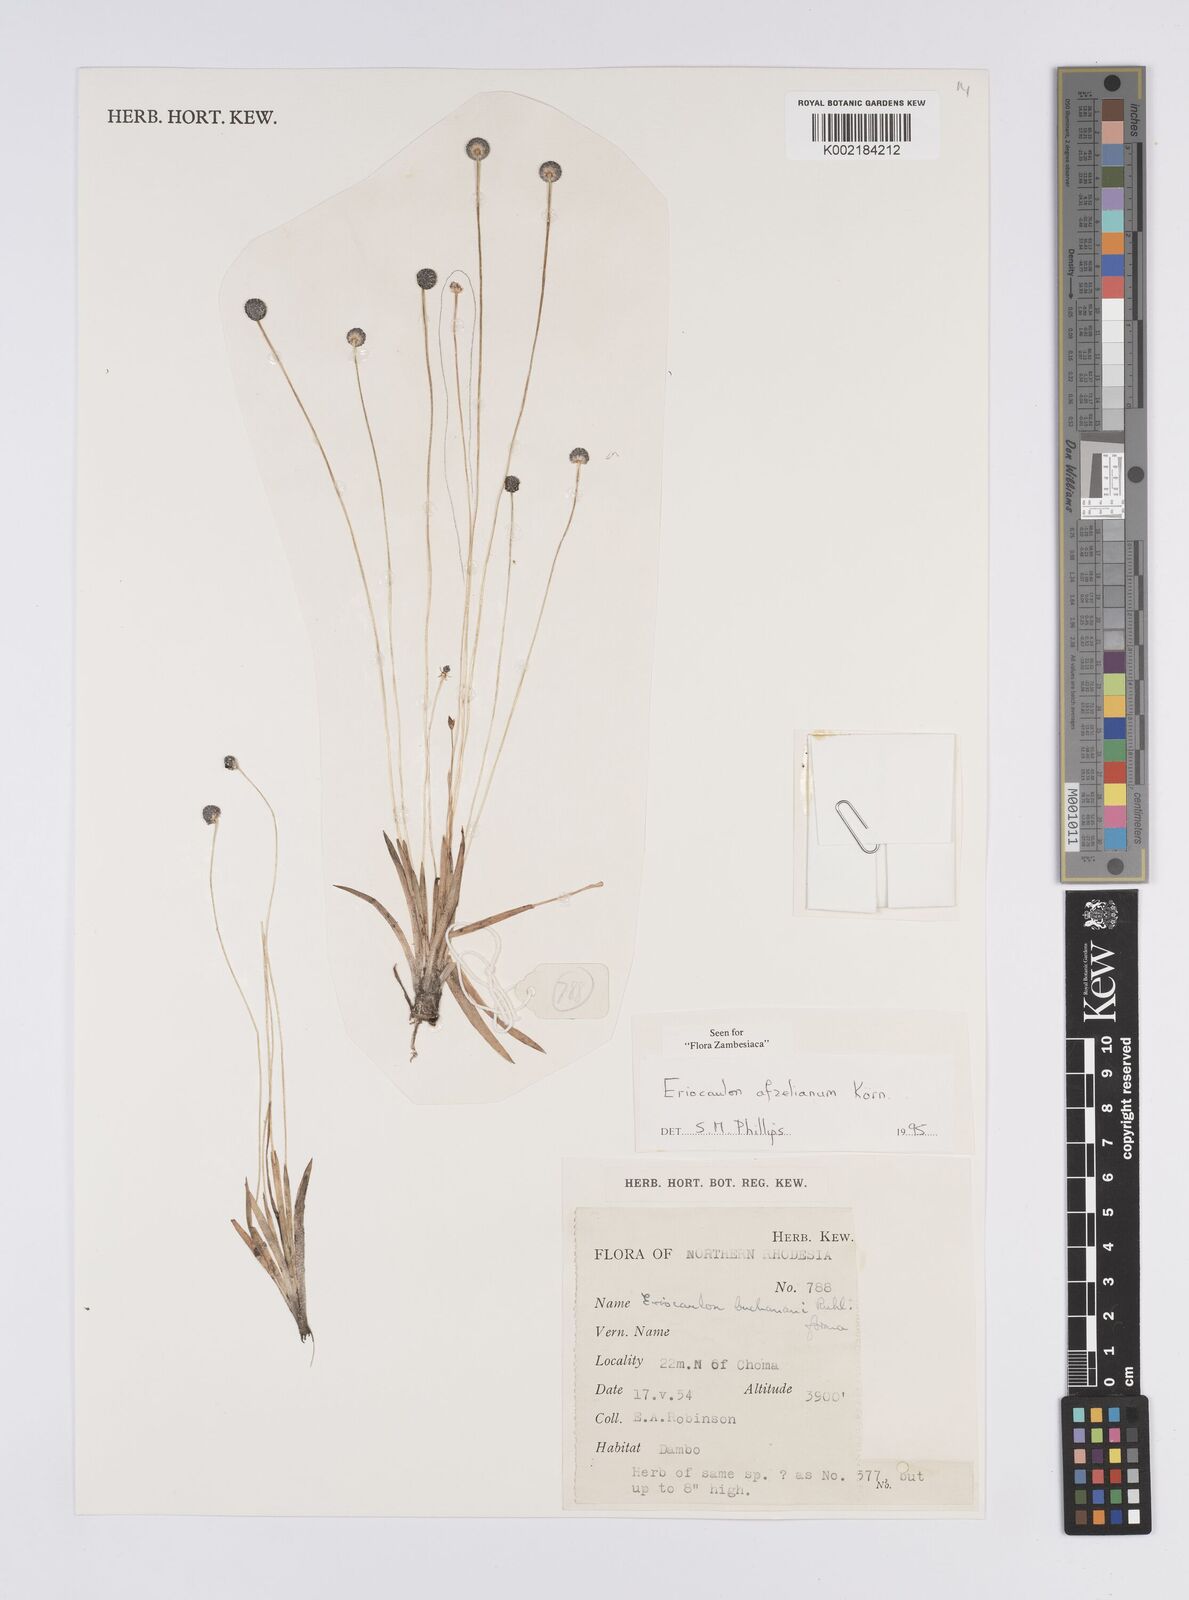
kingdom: Plantae
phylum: Tracheophyta
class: Liliopsida
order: Poales
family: Eriocaulaceae
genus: Eriocaulon
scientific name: Eriocaulon afzelianum
